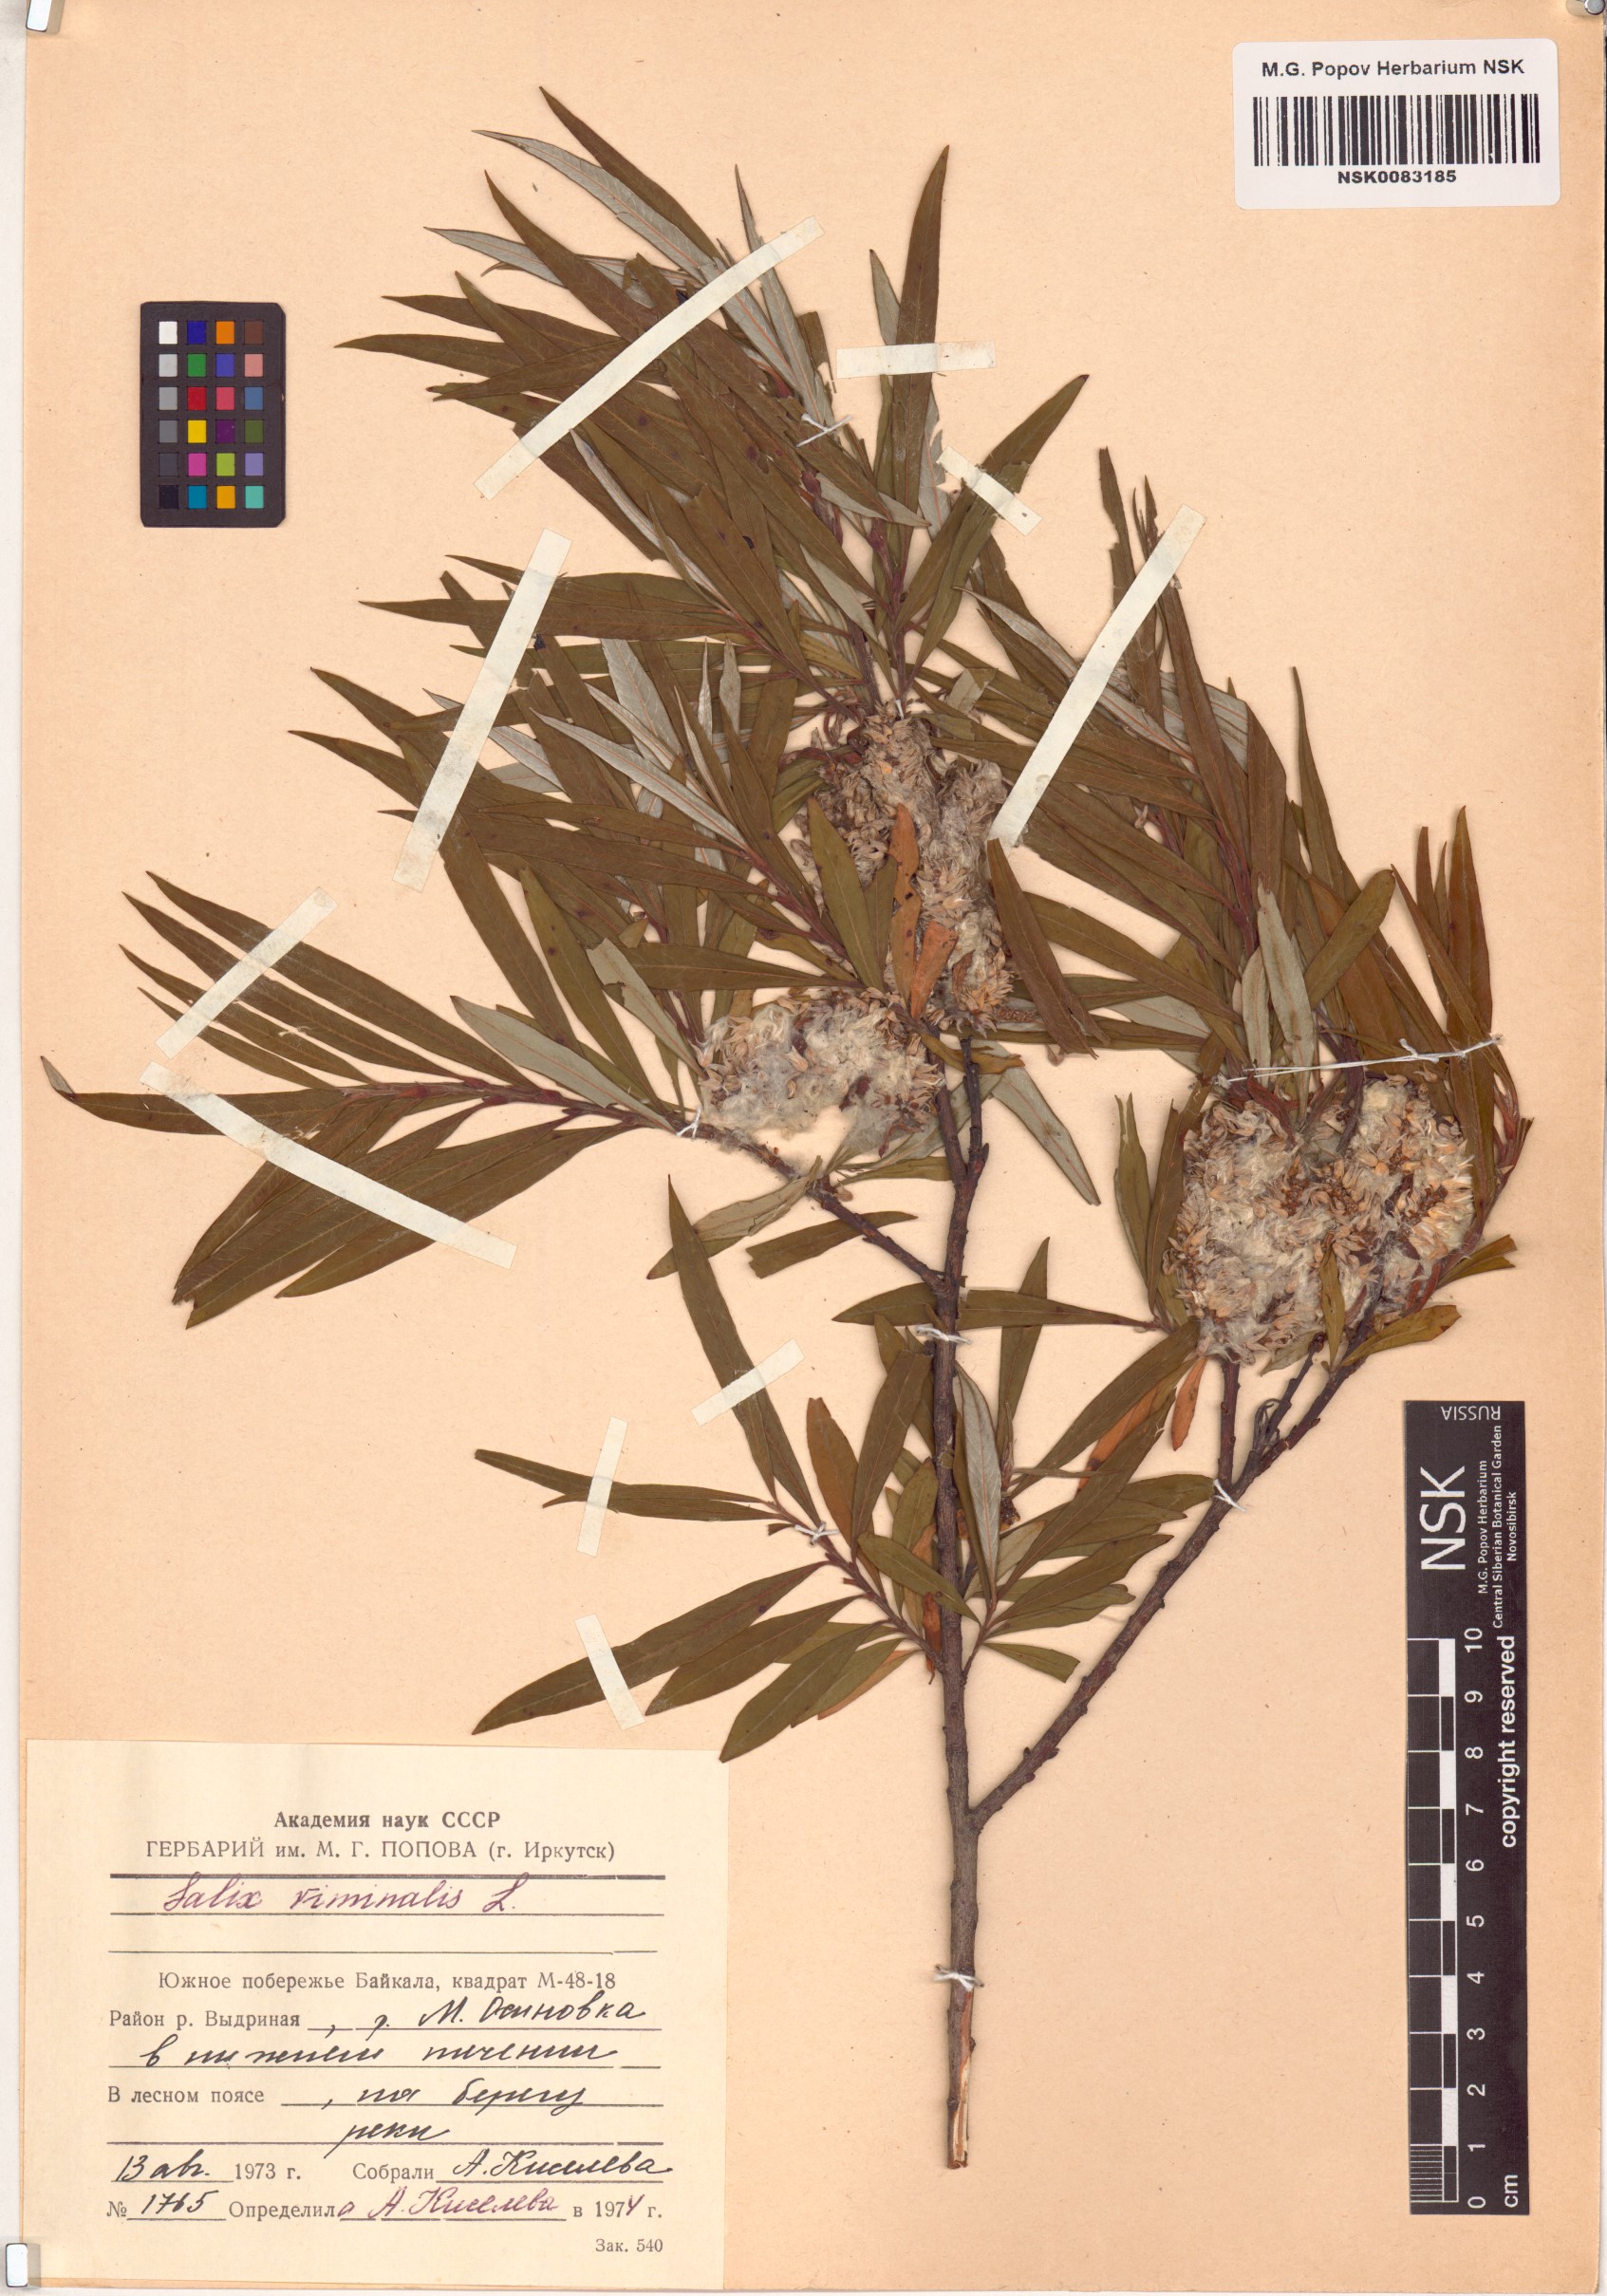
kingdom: Plantae
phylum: Tracheophyta
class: Magnoliopsida
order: Malpighiales
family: Salicaceae
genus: Salix
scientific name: Salix viminalis
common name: Osier
